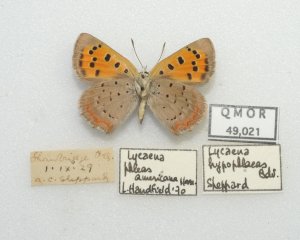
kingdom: Animalia
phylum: Arthropoda
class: Insecta
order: Lepidoptera
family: Lycaenidae
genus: Lycaena
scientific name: Lycaena phlaeas
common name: American Copper
